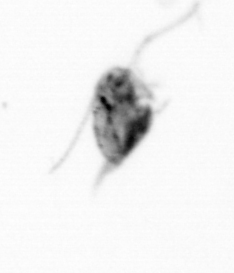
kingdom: Animalia
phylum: Arthropoda
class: Copepoda
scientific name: Copepoda
